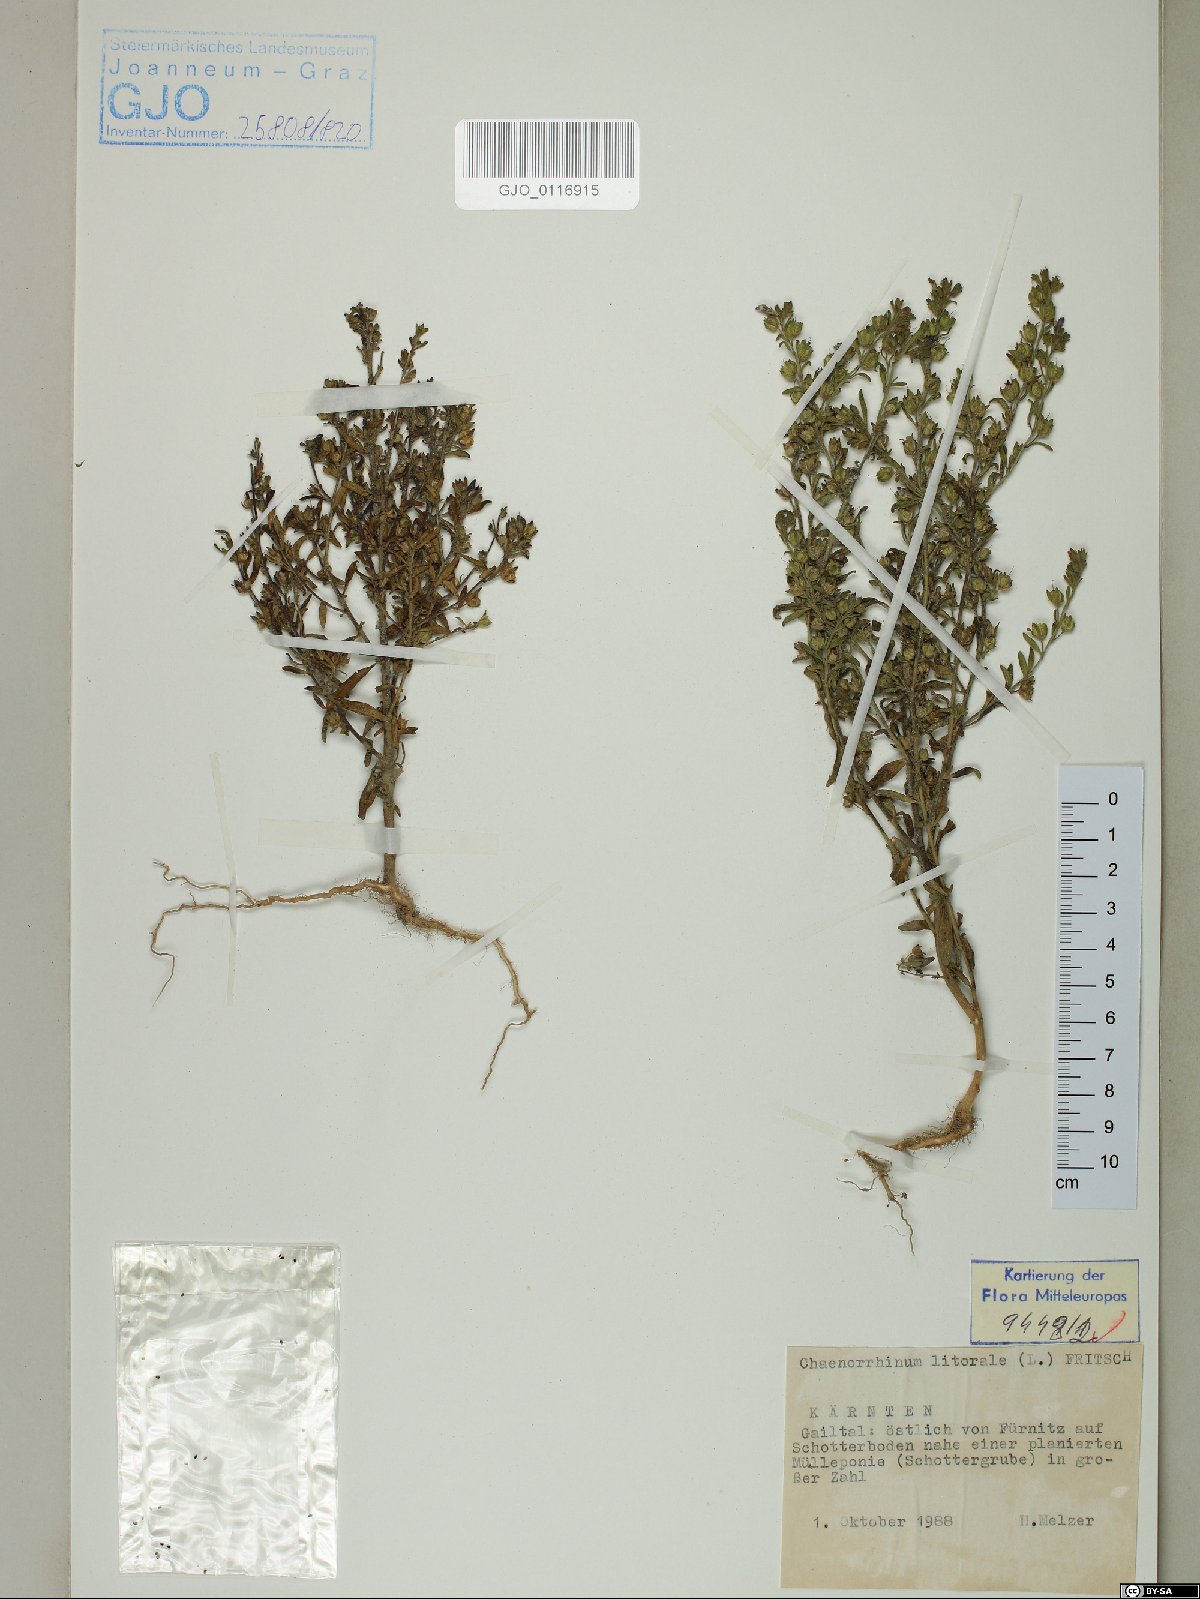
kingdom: Plantae
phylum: Tracheophyta
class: Magnoliopsida
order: Lamiales
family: Plantaginaceae
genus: Chaenorhinum
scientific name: Chaenorhinum litorale
